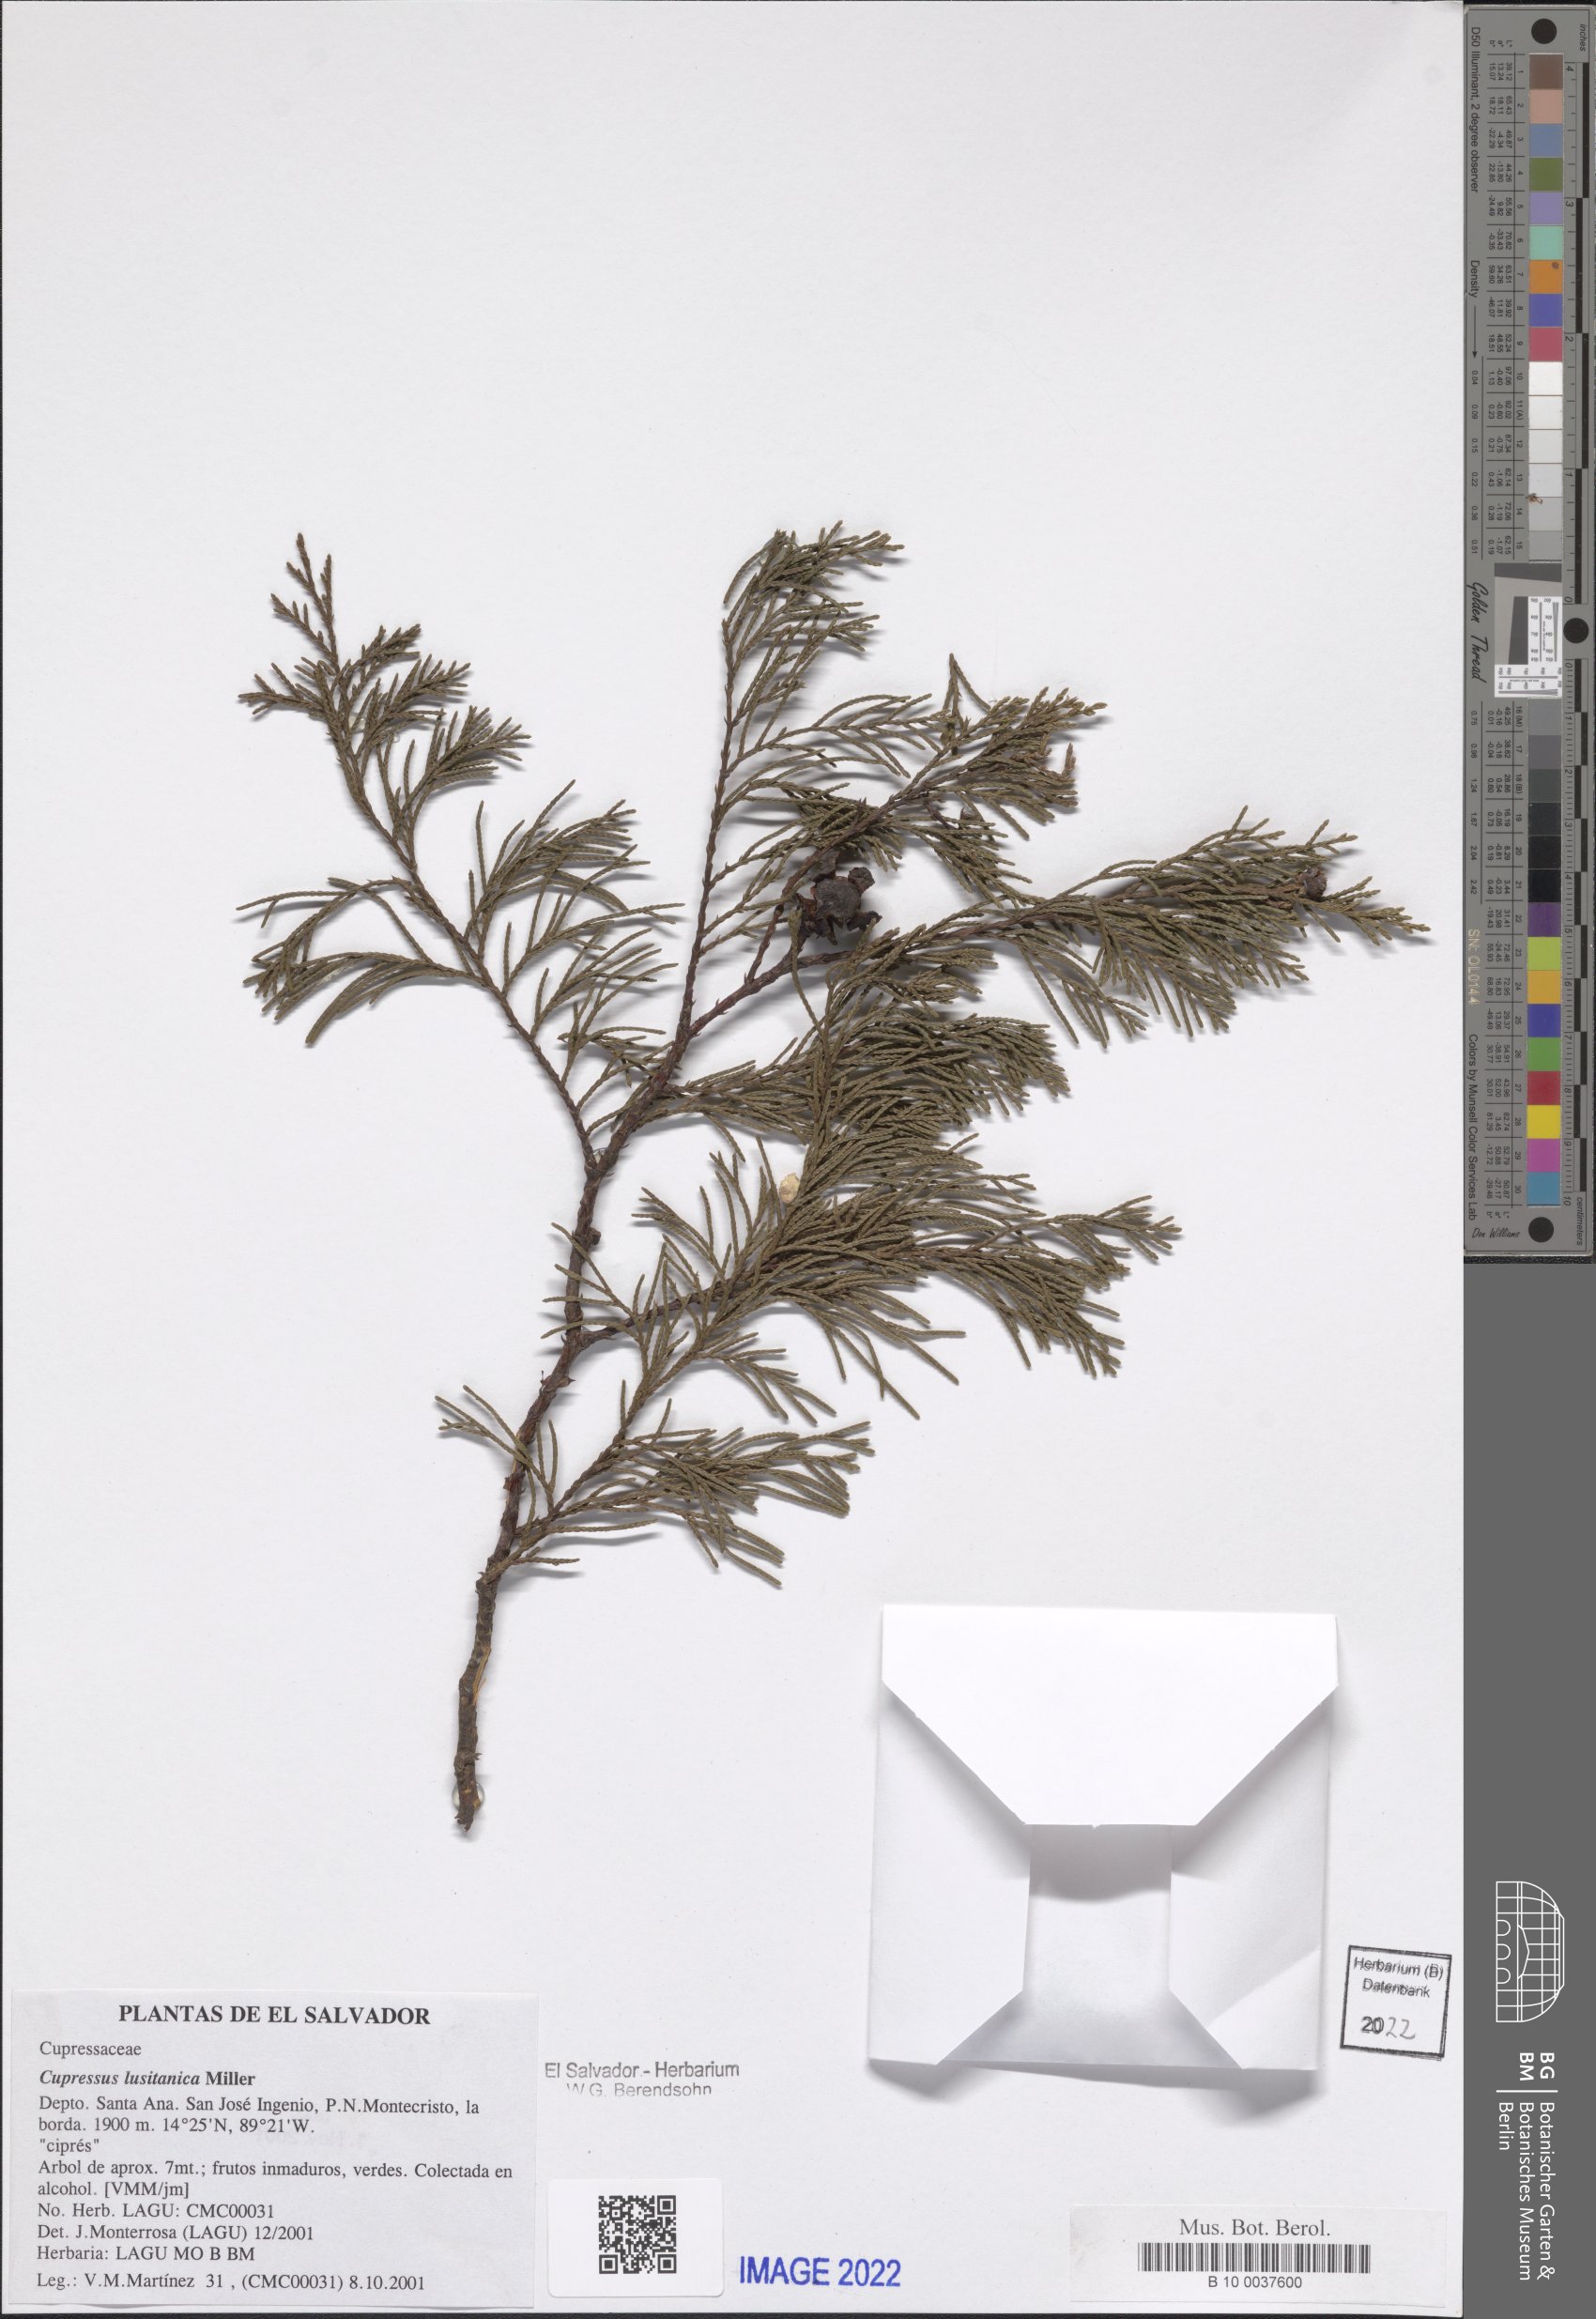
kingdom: Plantae
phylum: Tracheophyta
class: Pinopsida
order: Pinales
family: Cupressaceae
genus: Cupressus
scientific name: Cupressus lusitanica
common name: Mexican cypress
